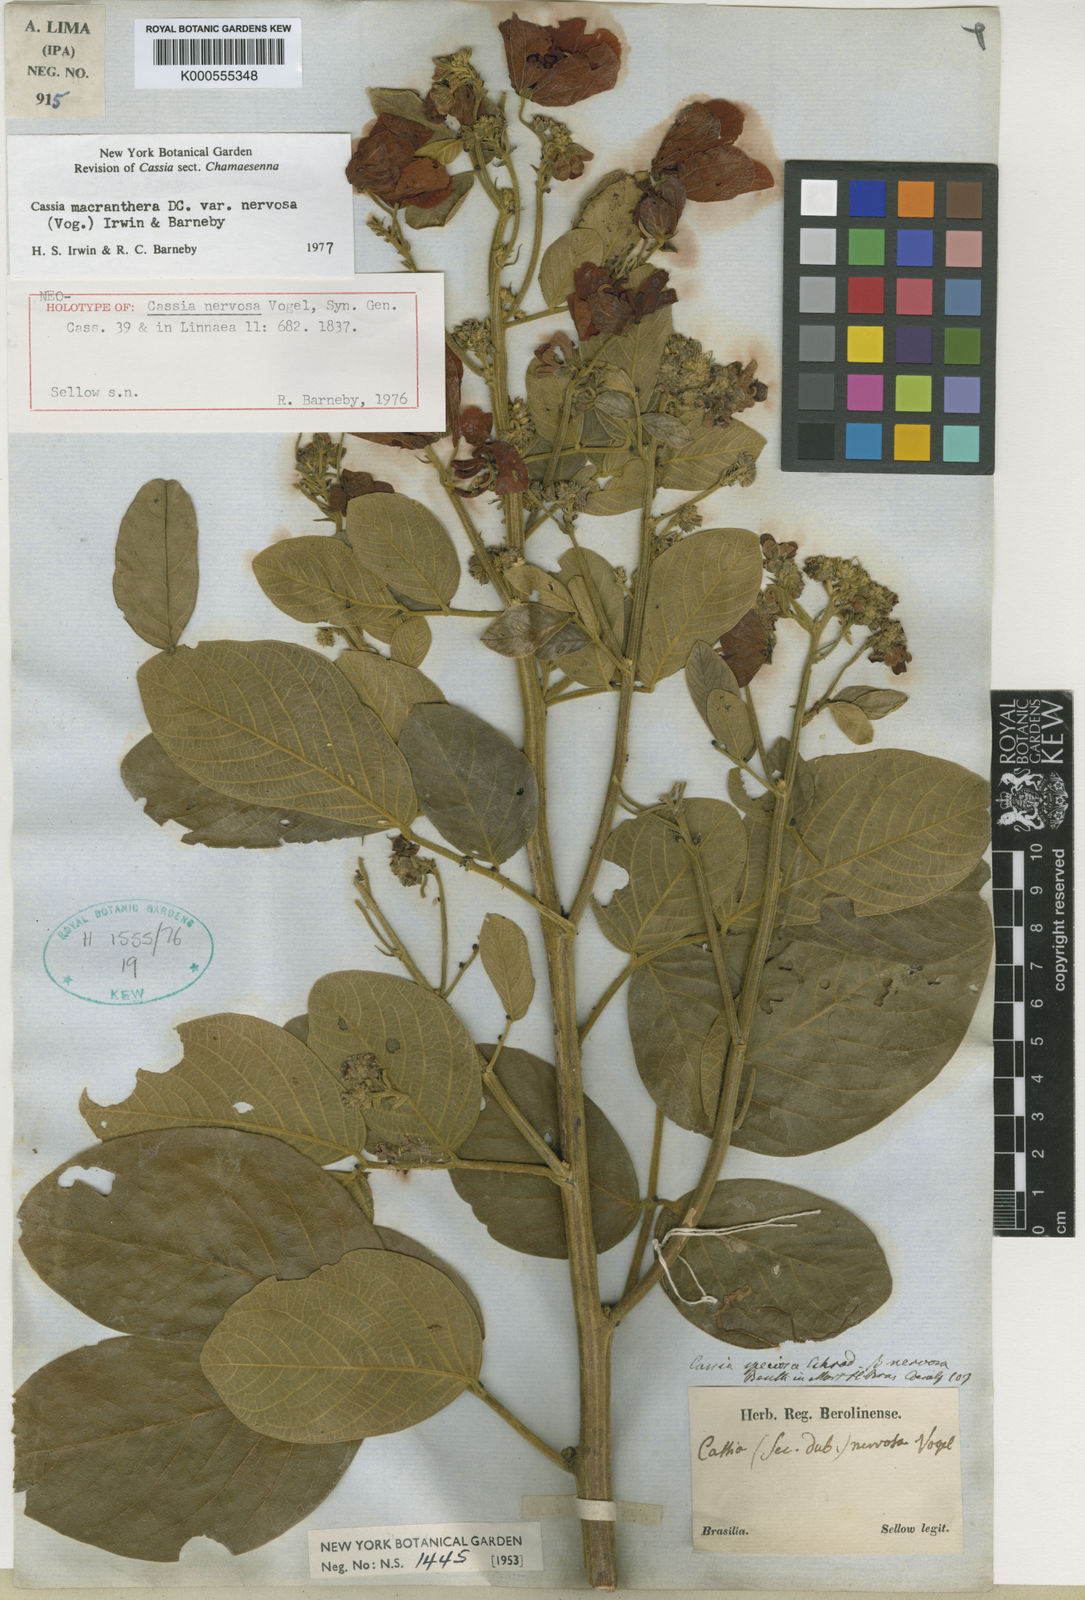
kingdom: Plantae
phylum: Tracheophyta
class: Magnoliopsida
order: Fabales
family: Fabaceae
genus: Senna
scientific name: Senna macranthera
